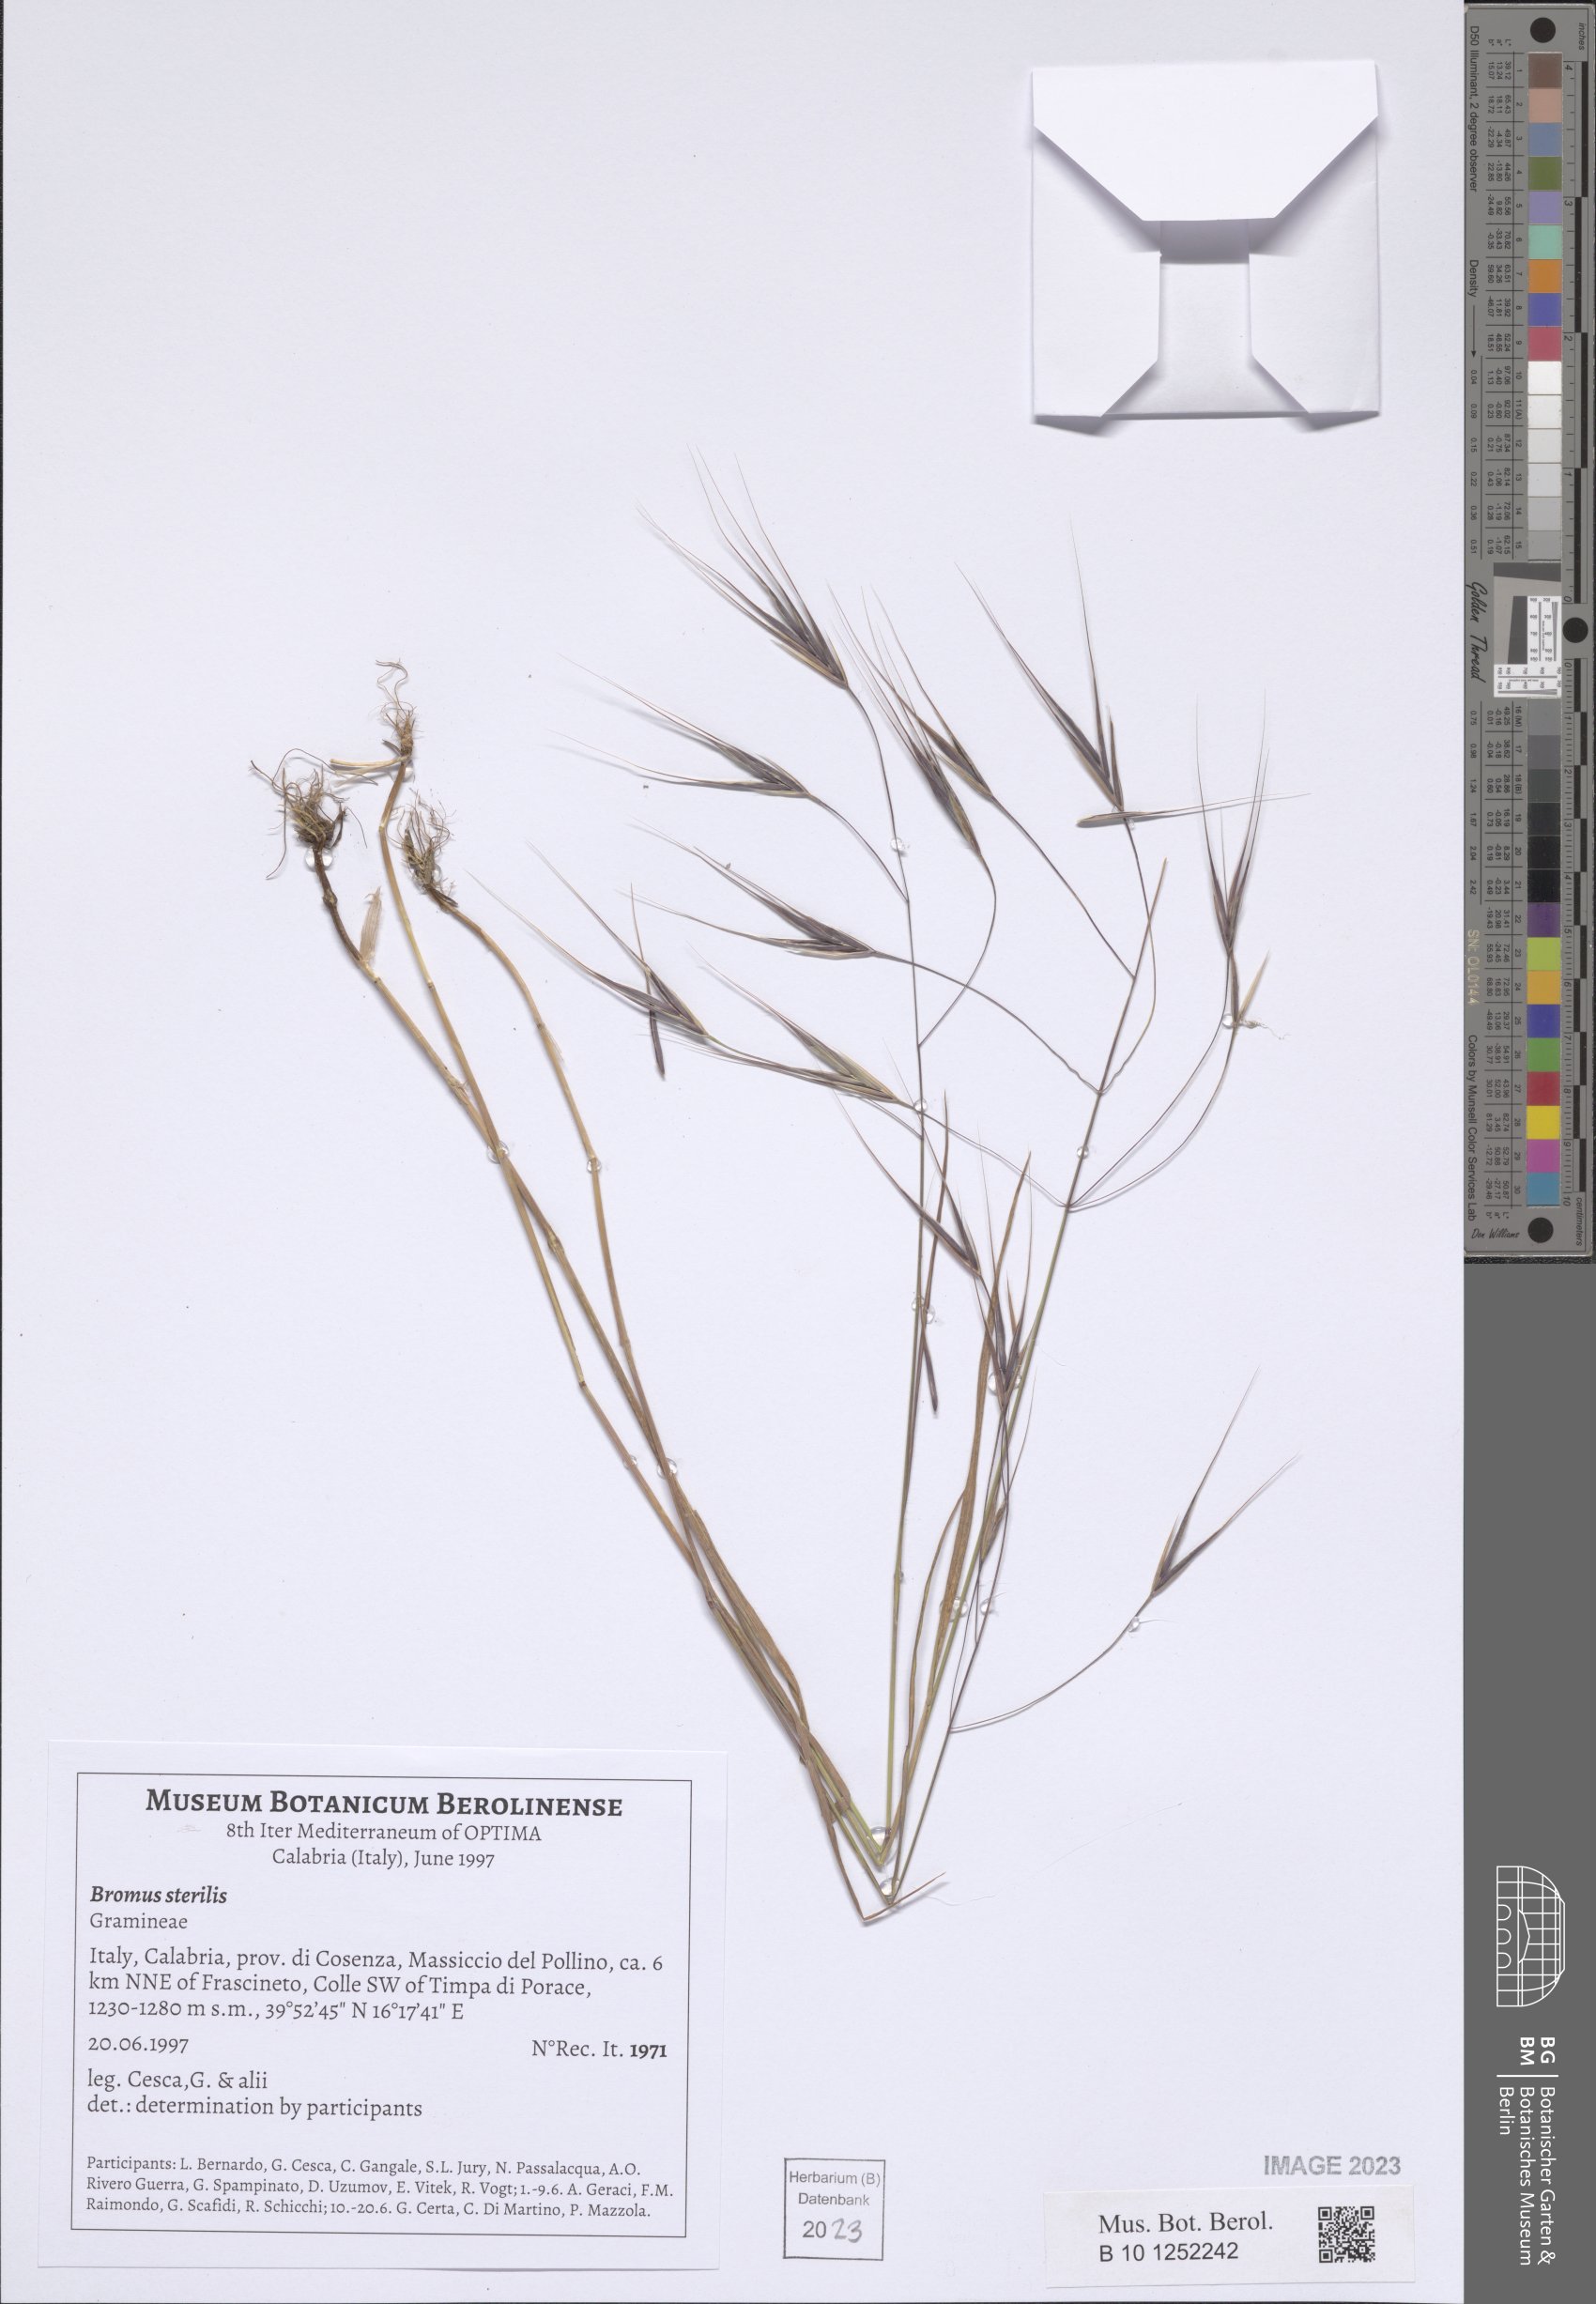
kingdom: Plantae
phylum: Tracheophyta
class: Liliopsida
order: Poales
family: Poaceae
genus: Bromus
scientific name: Bromus sterilis
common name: Poverty brome
